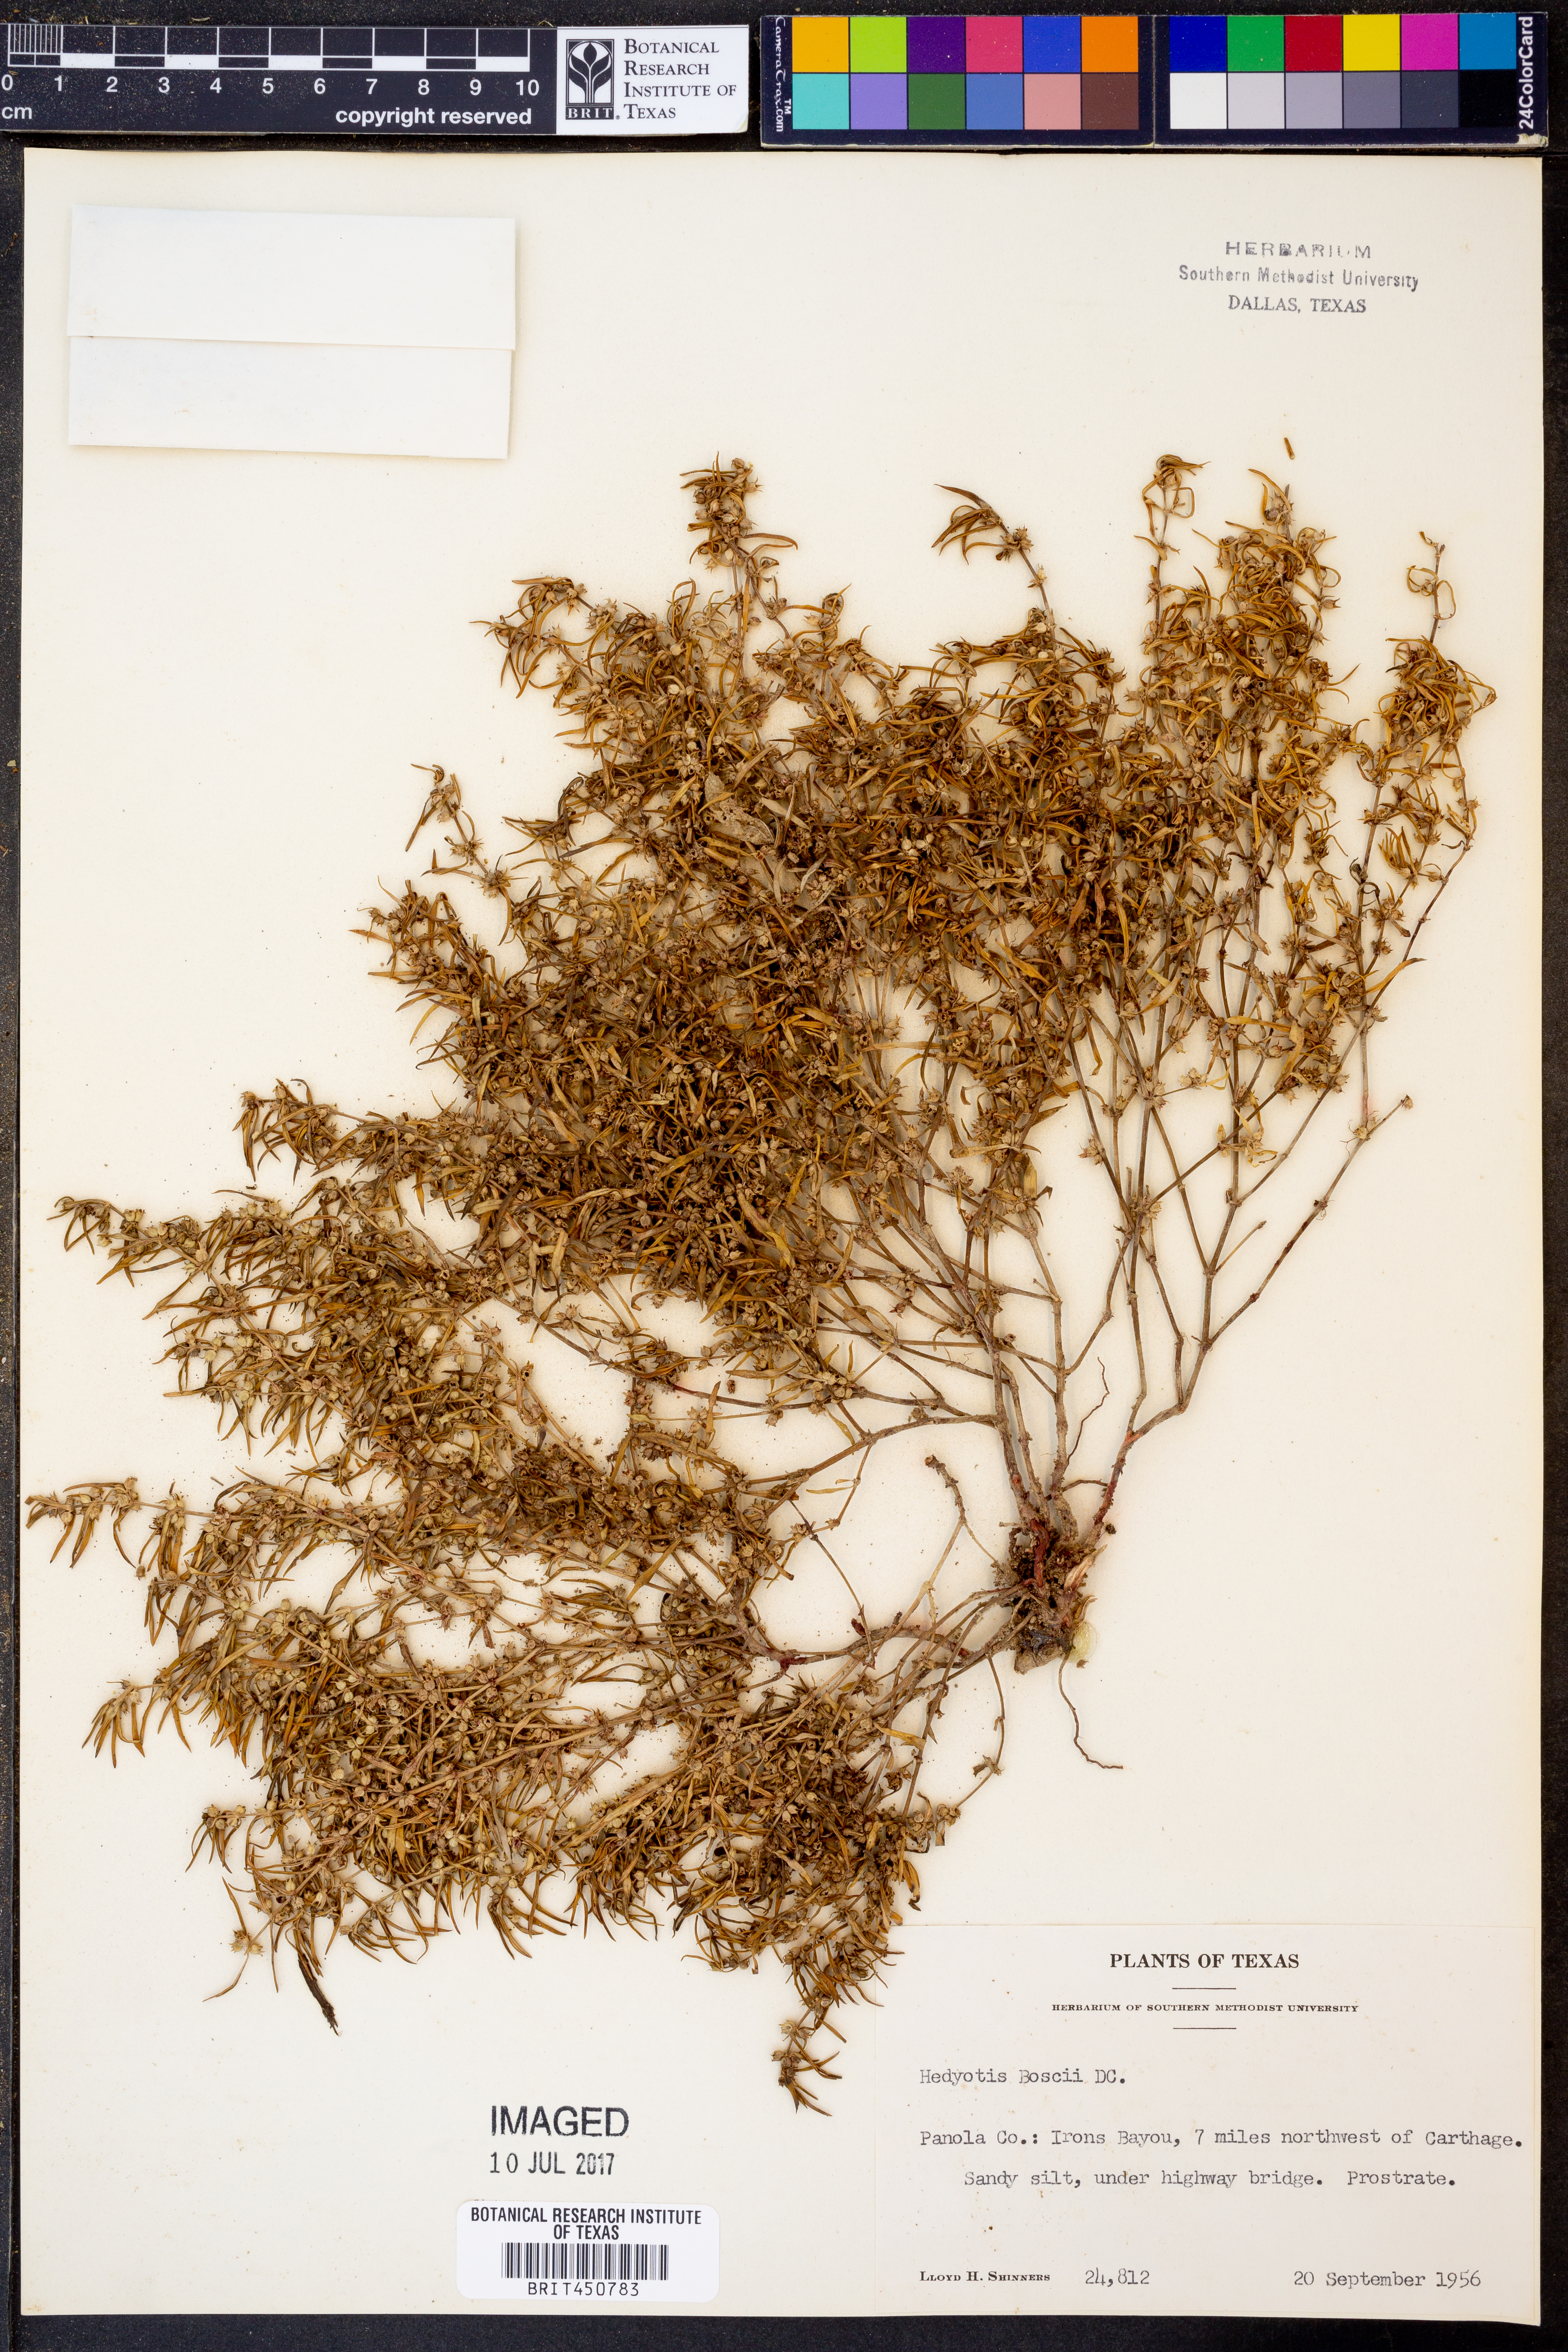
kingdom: Plantae
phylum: Tracheophyta
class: Magnoliopsida
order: Gentianales
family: Rubiaceae
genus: Oldenlandia
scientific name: Oldenlandia boscii
